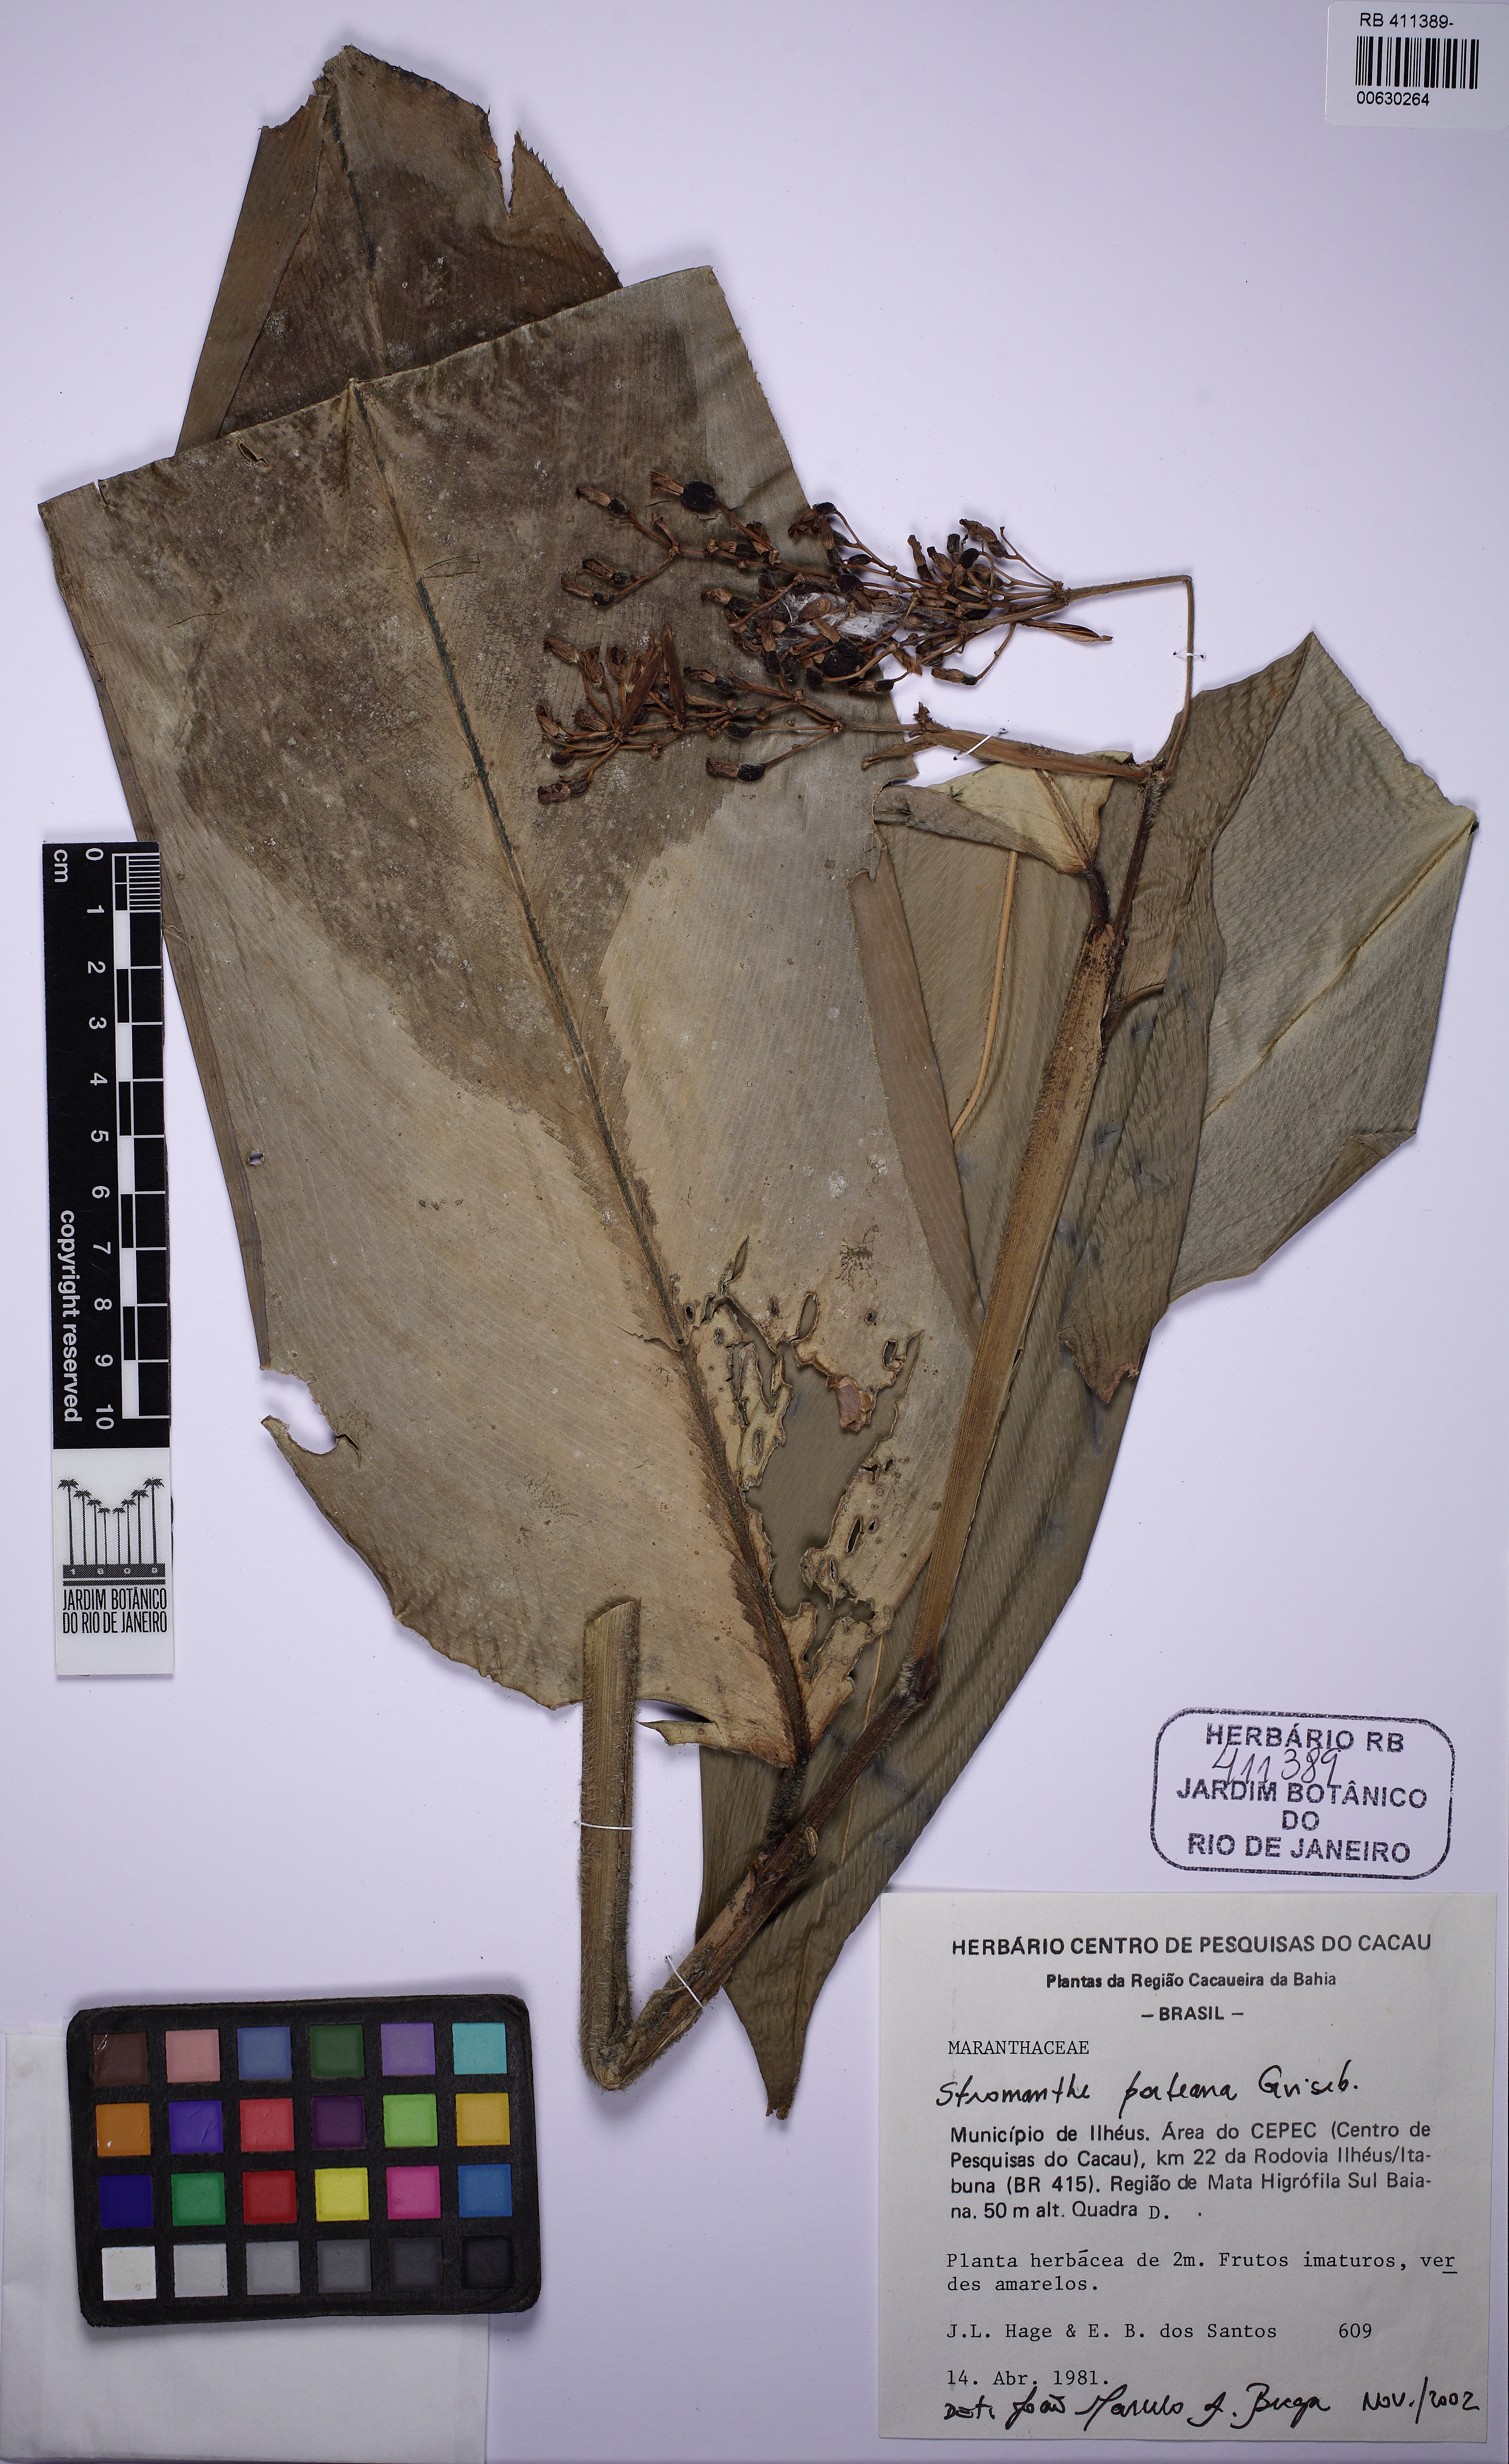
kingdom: Plantae
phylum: Tracheophyta
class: Liliopsida
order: Zingiberales
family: Marantaceae
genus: Stromanthe
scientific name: Stromanthe porteana
